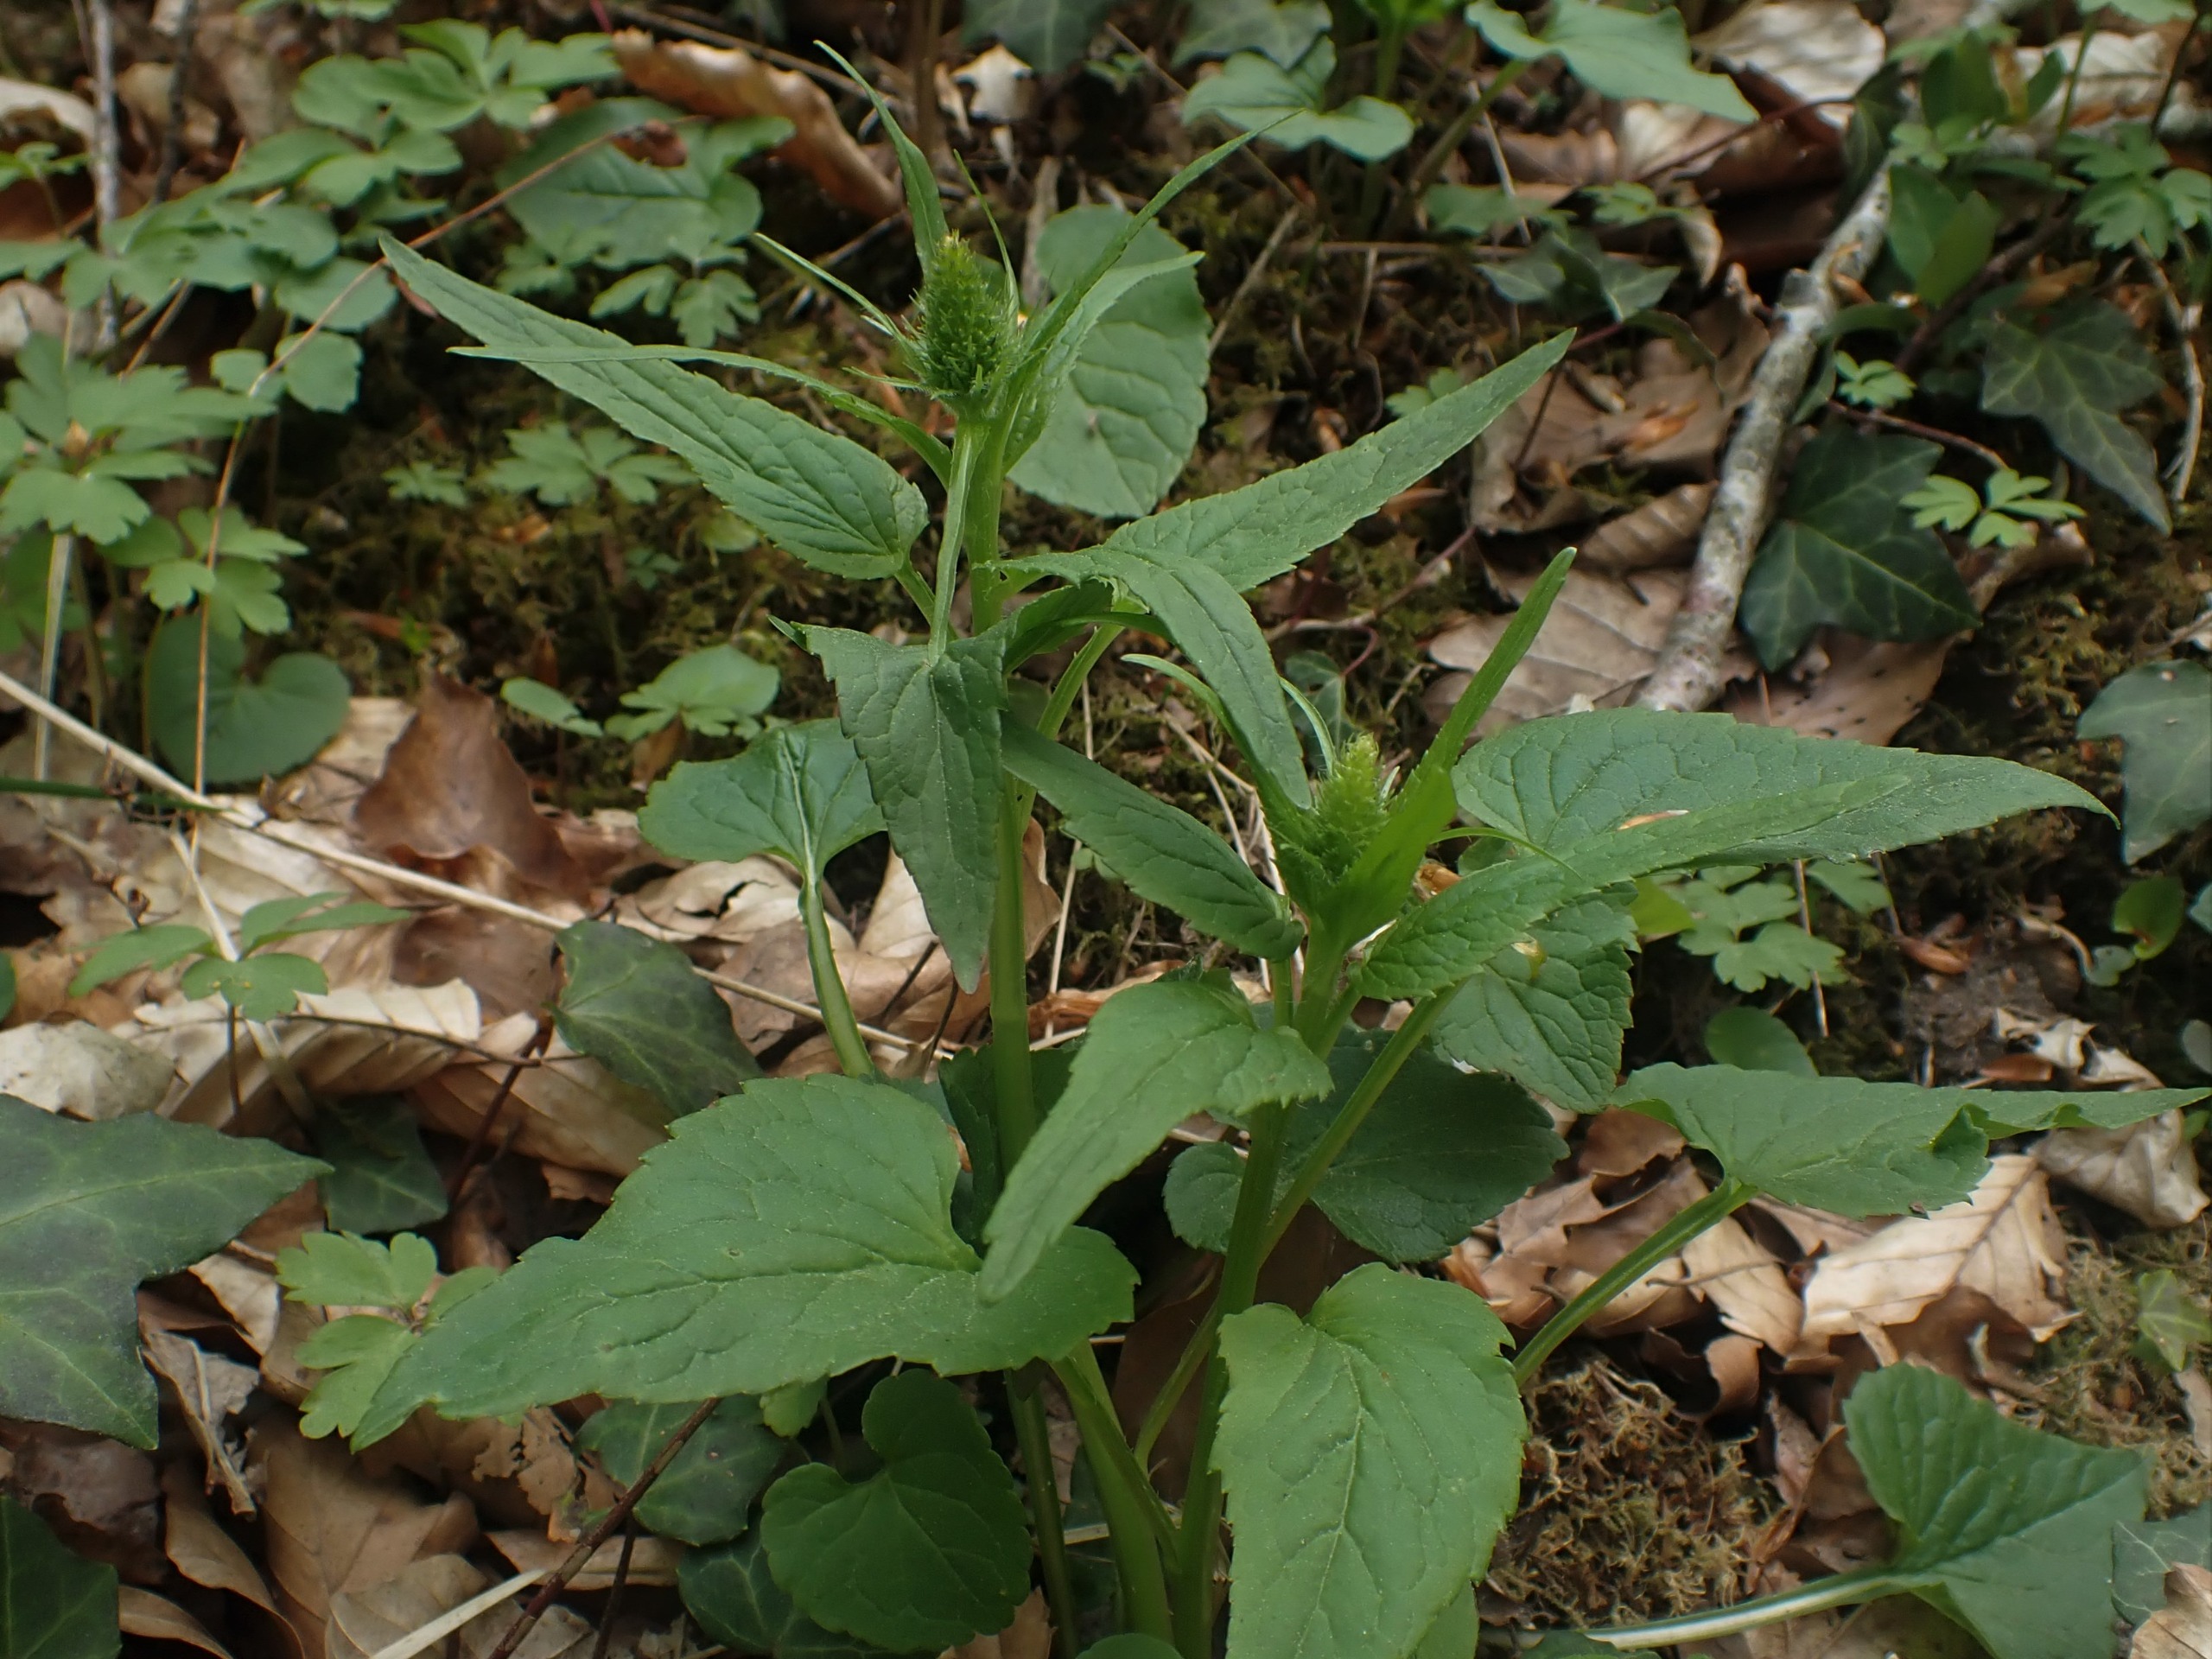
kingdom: Plantae
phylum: Tracheophyta
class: Magnoliopsida
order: Asterales
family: Campanulaceae
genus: Phyteuma
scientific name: Phyteuma spicatum
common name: Aks-rapunsel
